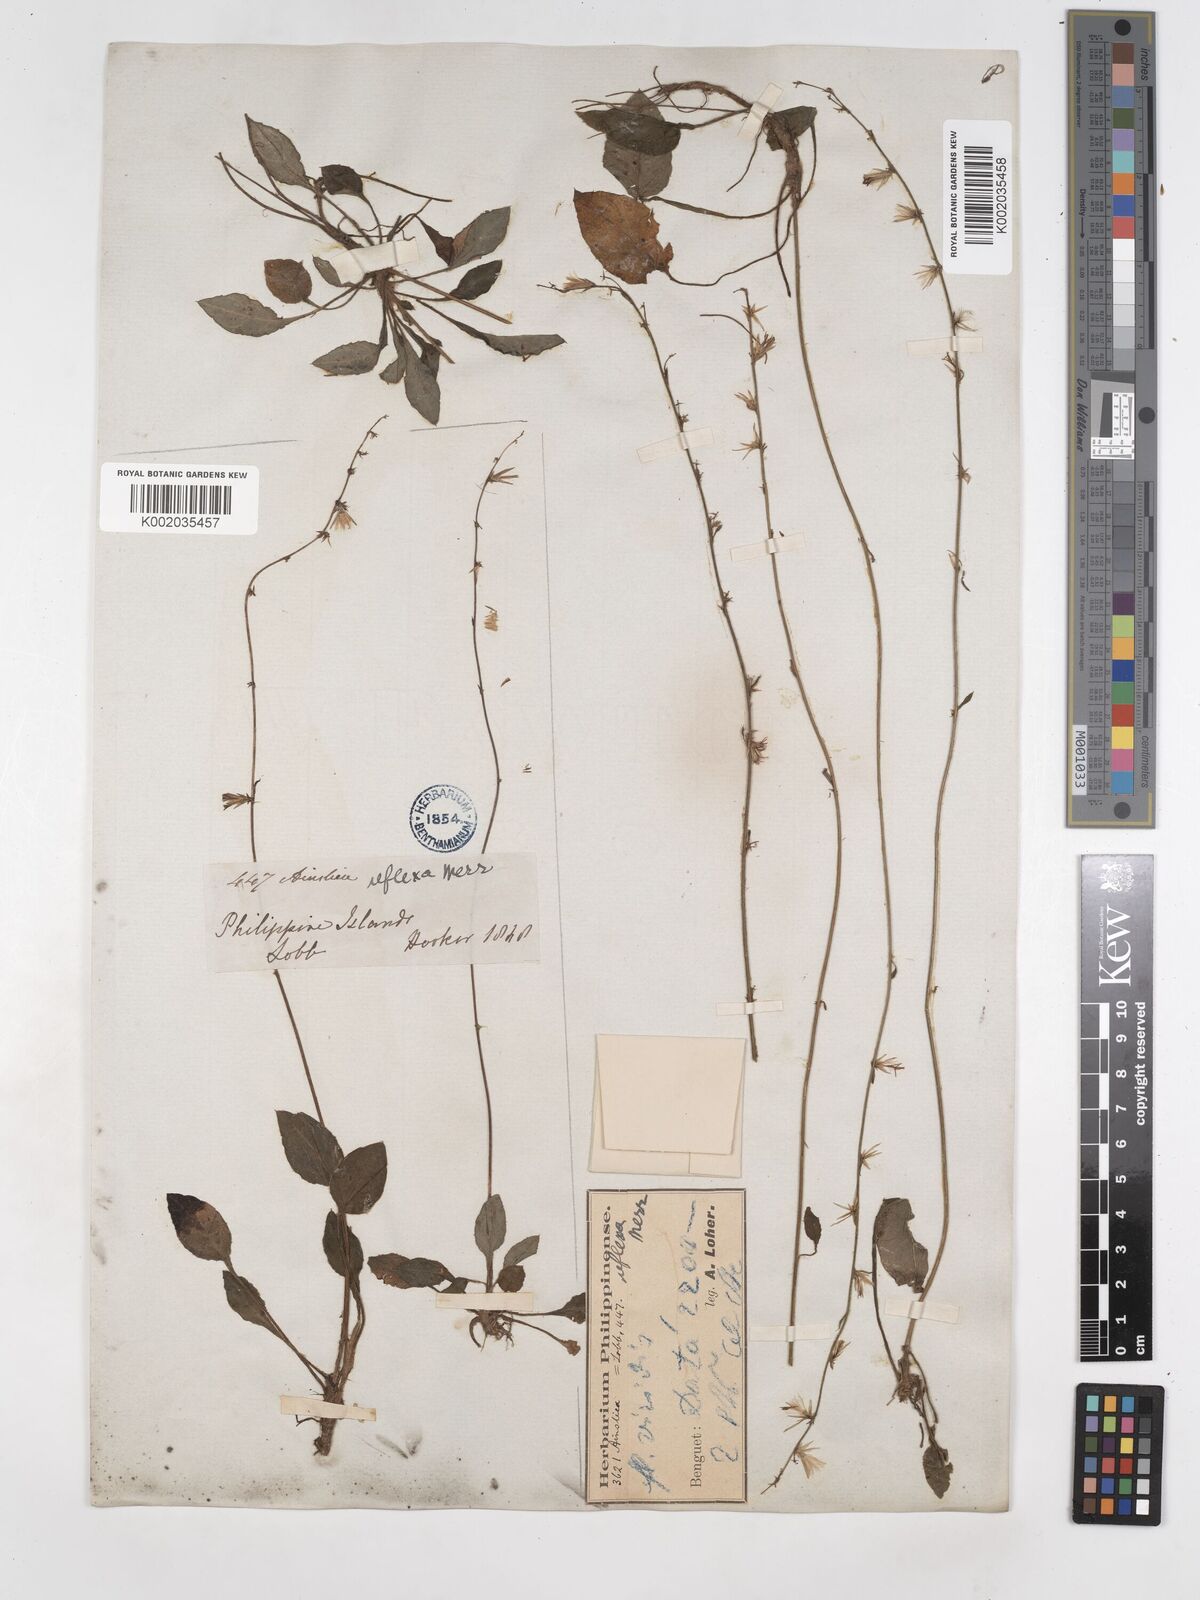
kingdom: Plantae
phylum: Tracheophyta
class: Magnoliopsida
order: Asterales
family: Asteraceae
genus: Ainsliaea
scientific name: Ainsliaea reflexa
